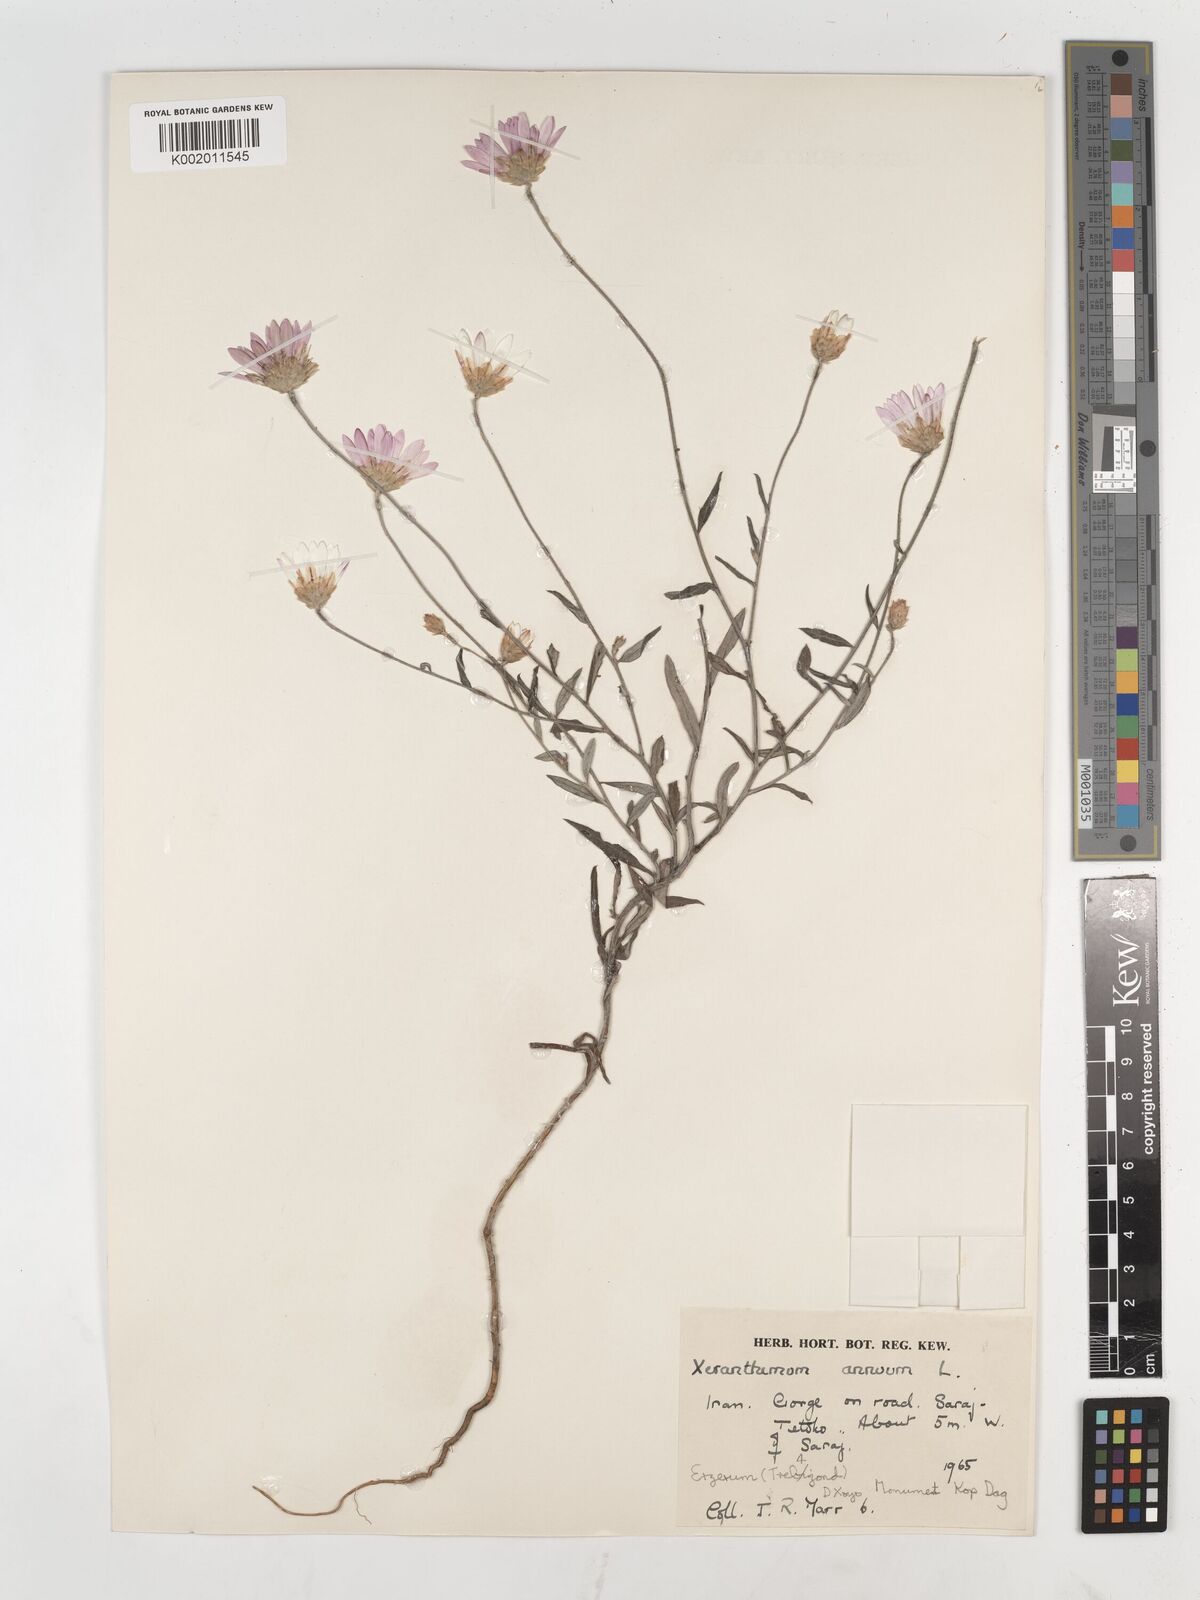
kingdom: Plantae
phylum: Tracheophyta
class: Magnoliopsida
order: Asterales
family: Asteraceae
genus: Xeranthemum
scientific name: Xeranthemum annuum
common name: Immortelle
